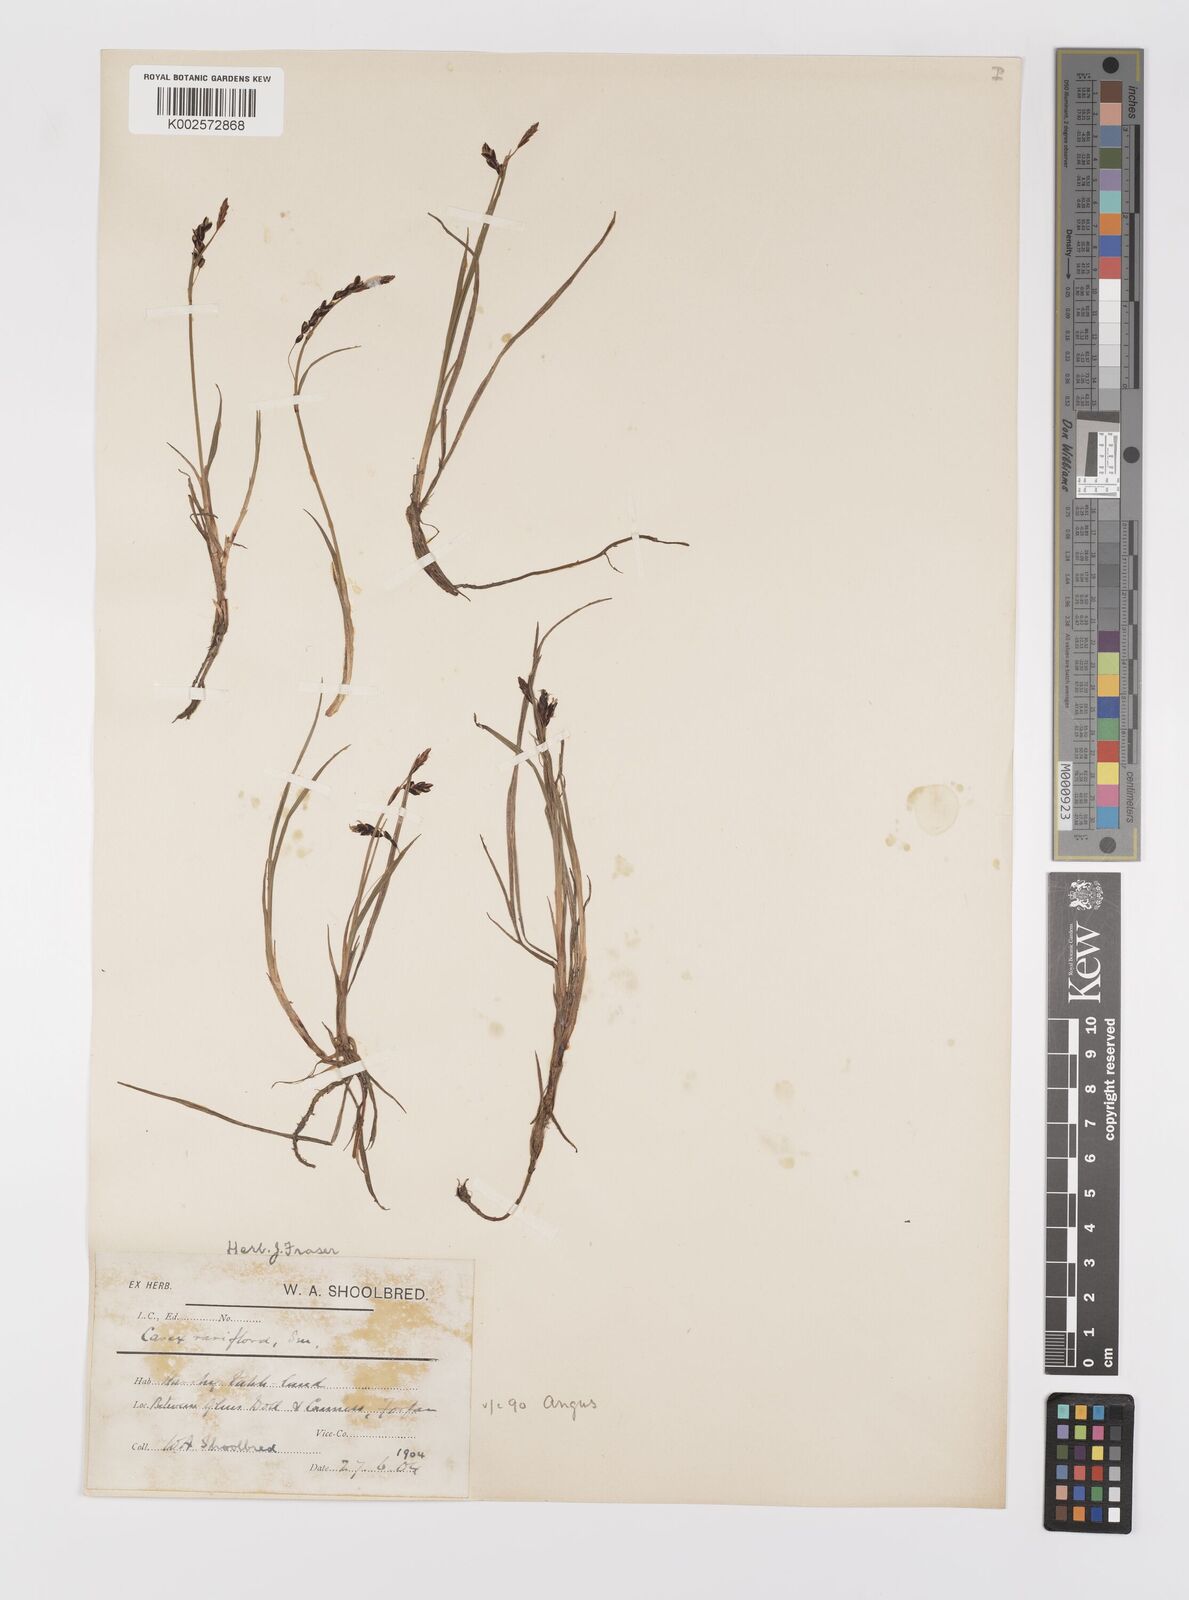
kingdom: Plantae
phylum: Tracheophyta
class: Liliopsida
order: Poales
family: Cyperaceae
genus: Carex
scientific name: Carex rariflora
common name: Loose-flowered alpine sedge
